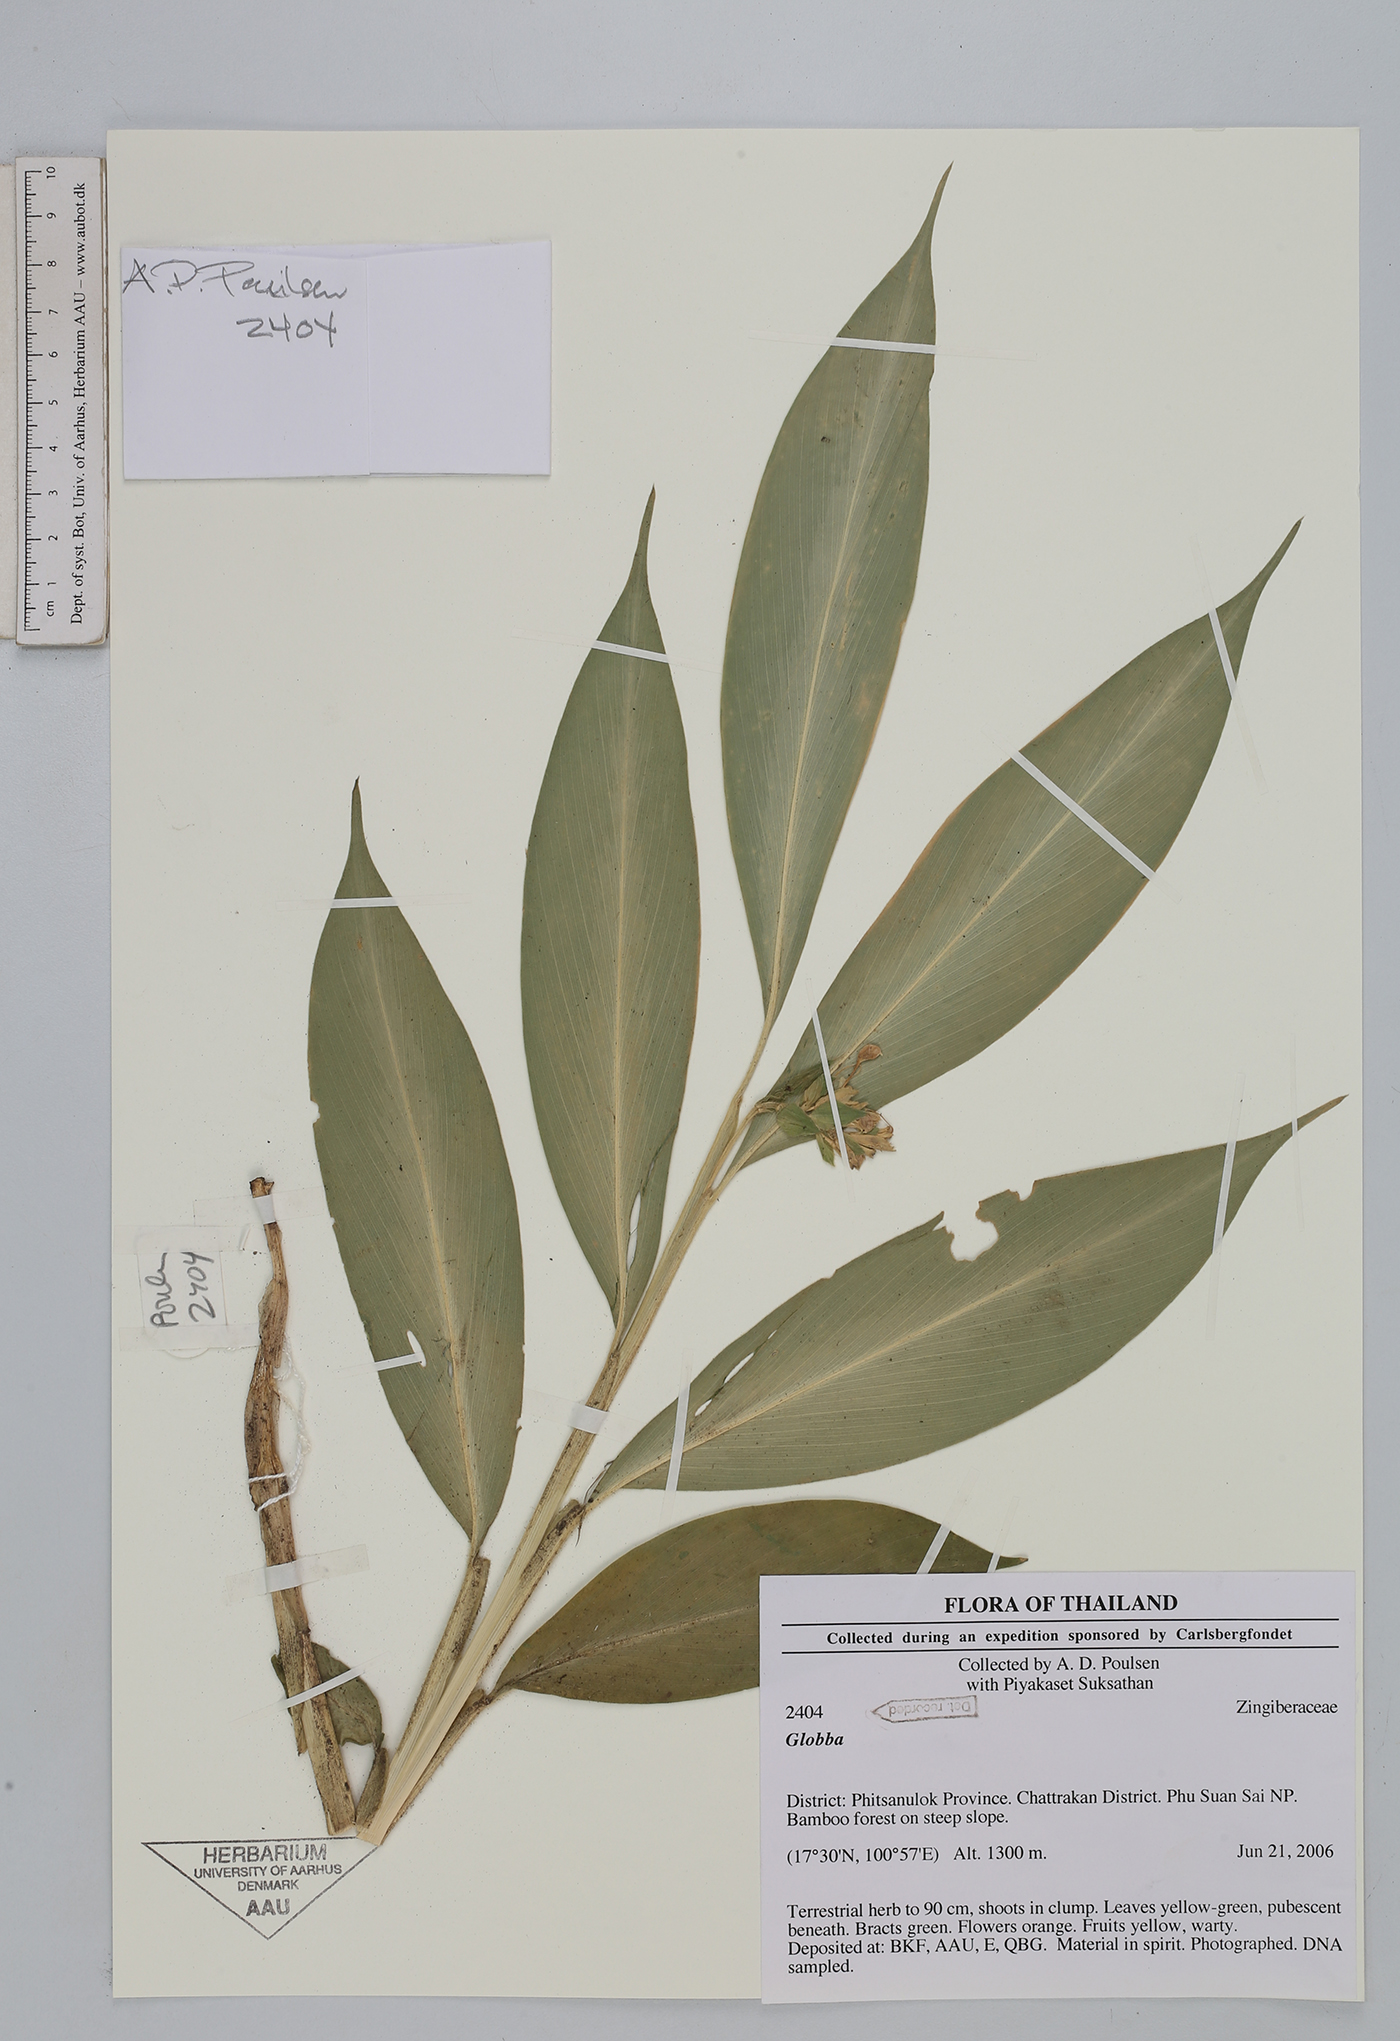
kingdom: Plantae
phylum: Tracheophyta
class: Liliopsida
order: Zingiberales
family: Zingiberaceae
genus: Globba
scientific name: Globba
